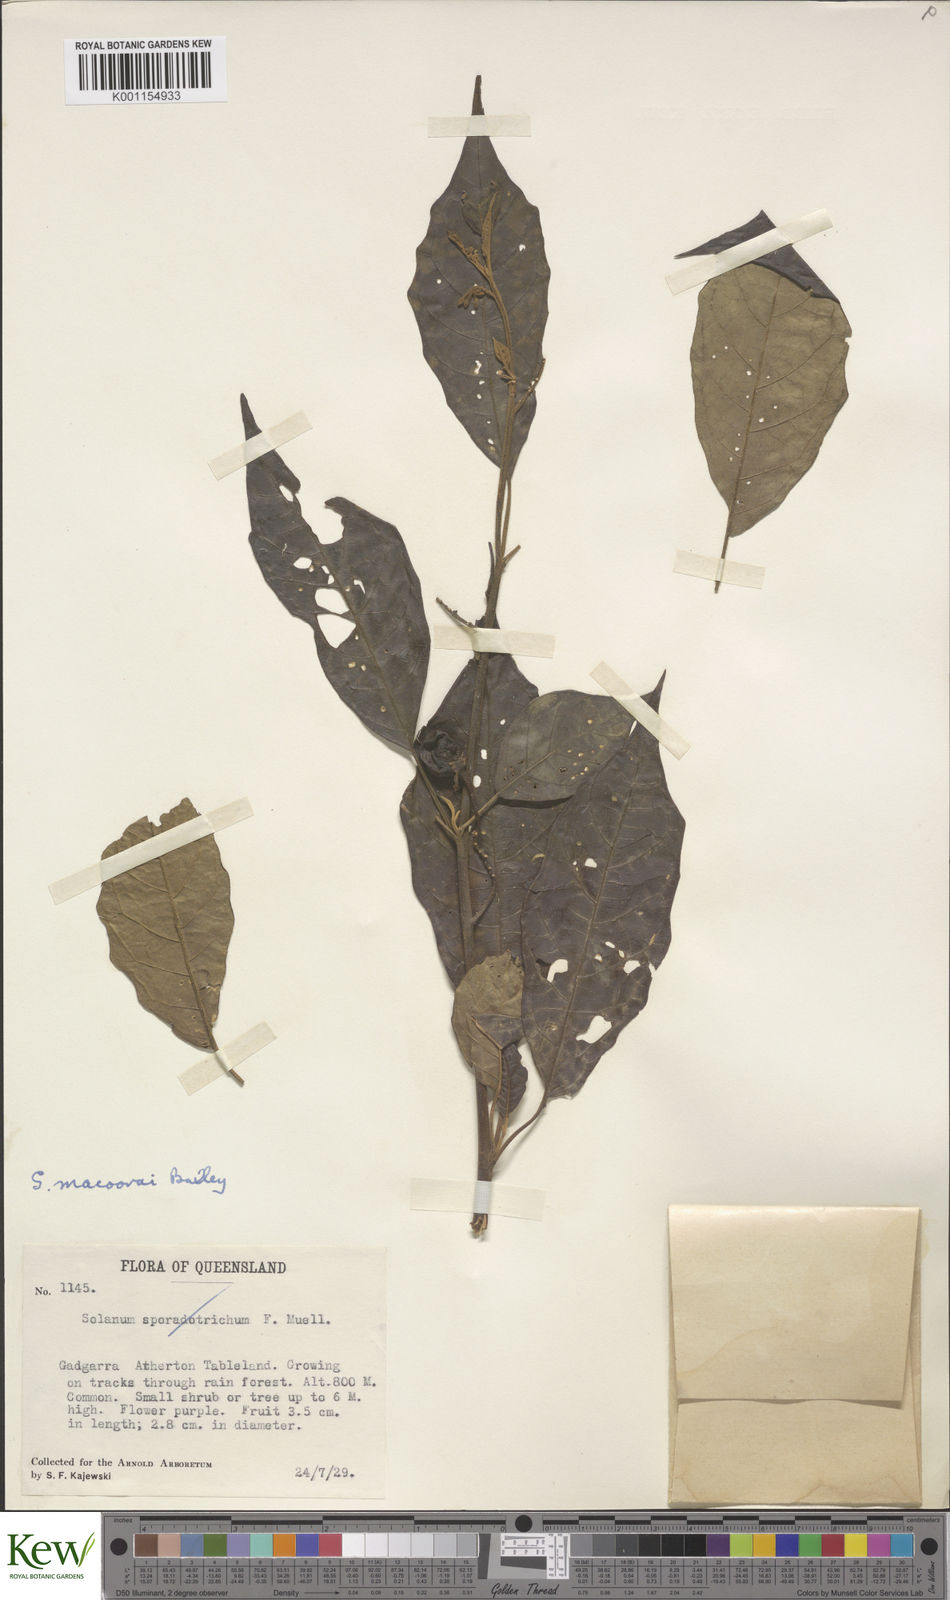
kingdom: Plantae
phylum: Tracheophyta
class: Magnoliopsida
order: Solanales
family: Solanaceae
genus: Solanum
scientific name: Solanum macoorai
